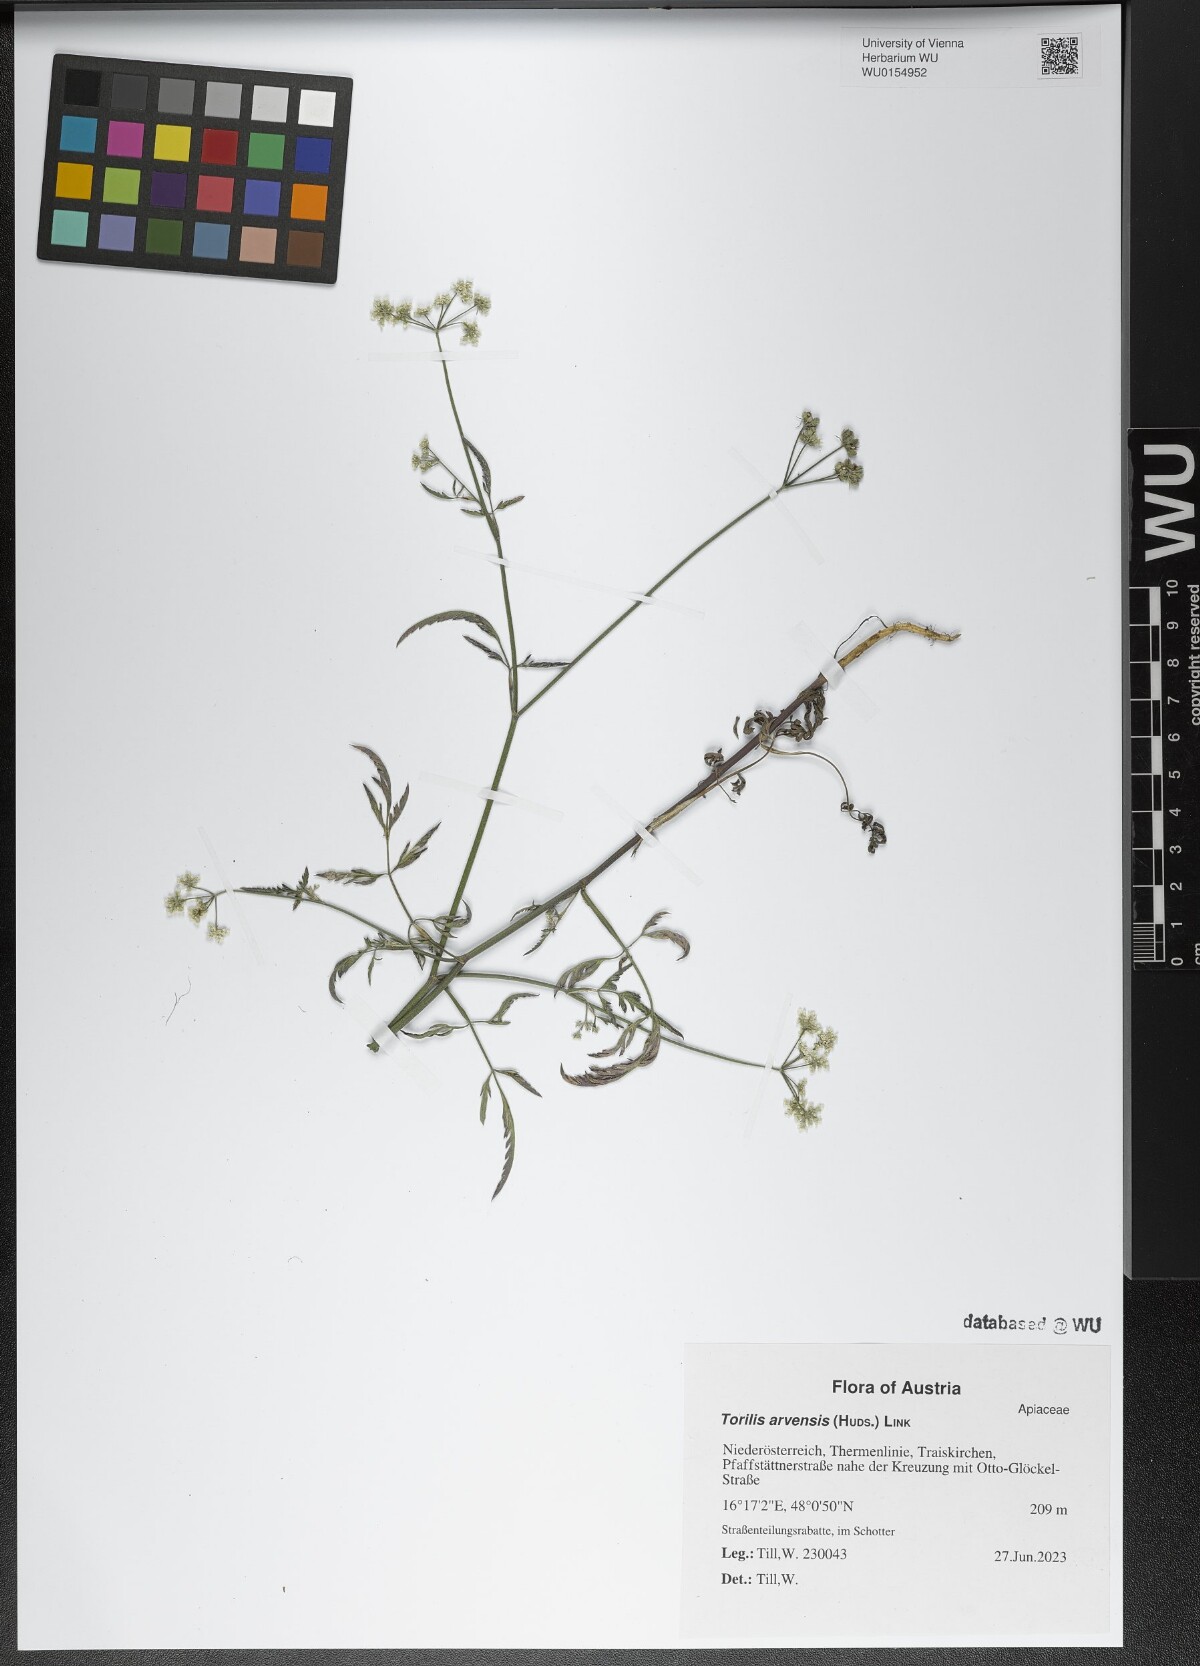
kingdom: Plantae
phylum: Tracheophyta
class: Magnoliopsida
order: Apiales
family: Apiaceae
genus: Torilis
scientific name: Torilis arvensis
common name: Spreading hedge-parsley
